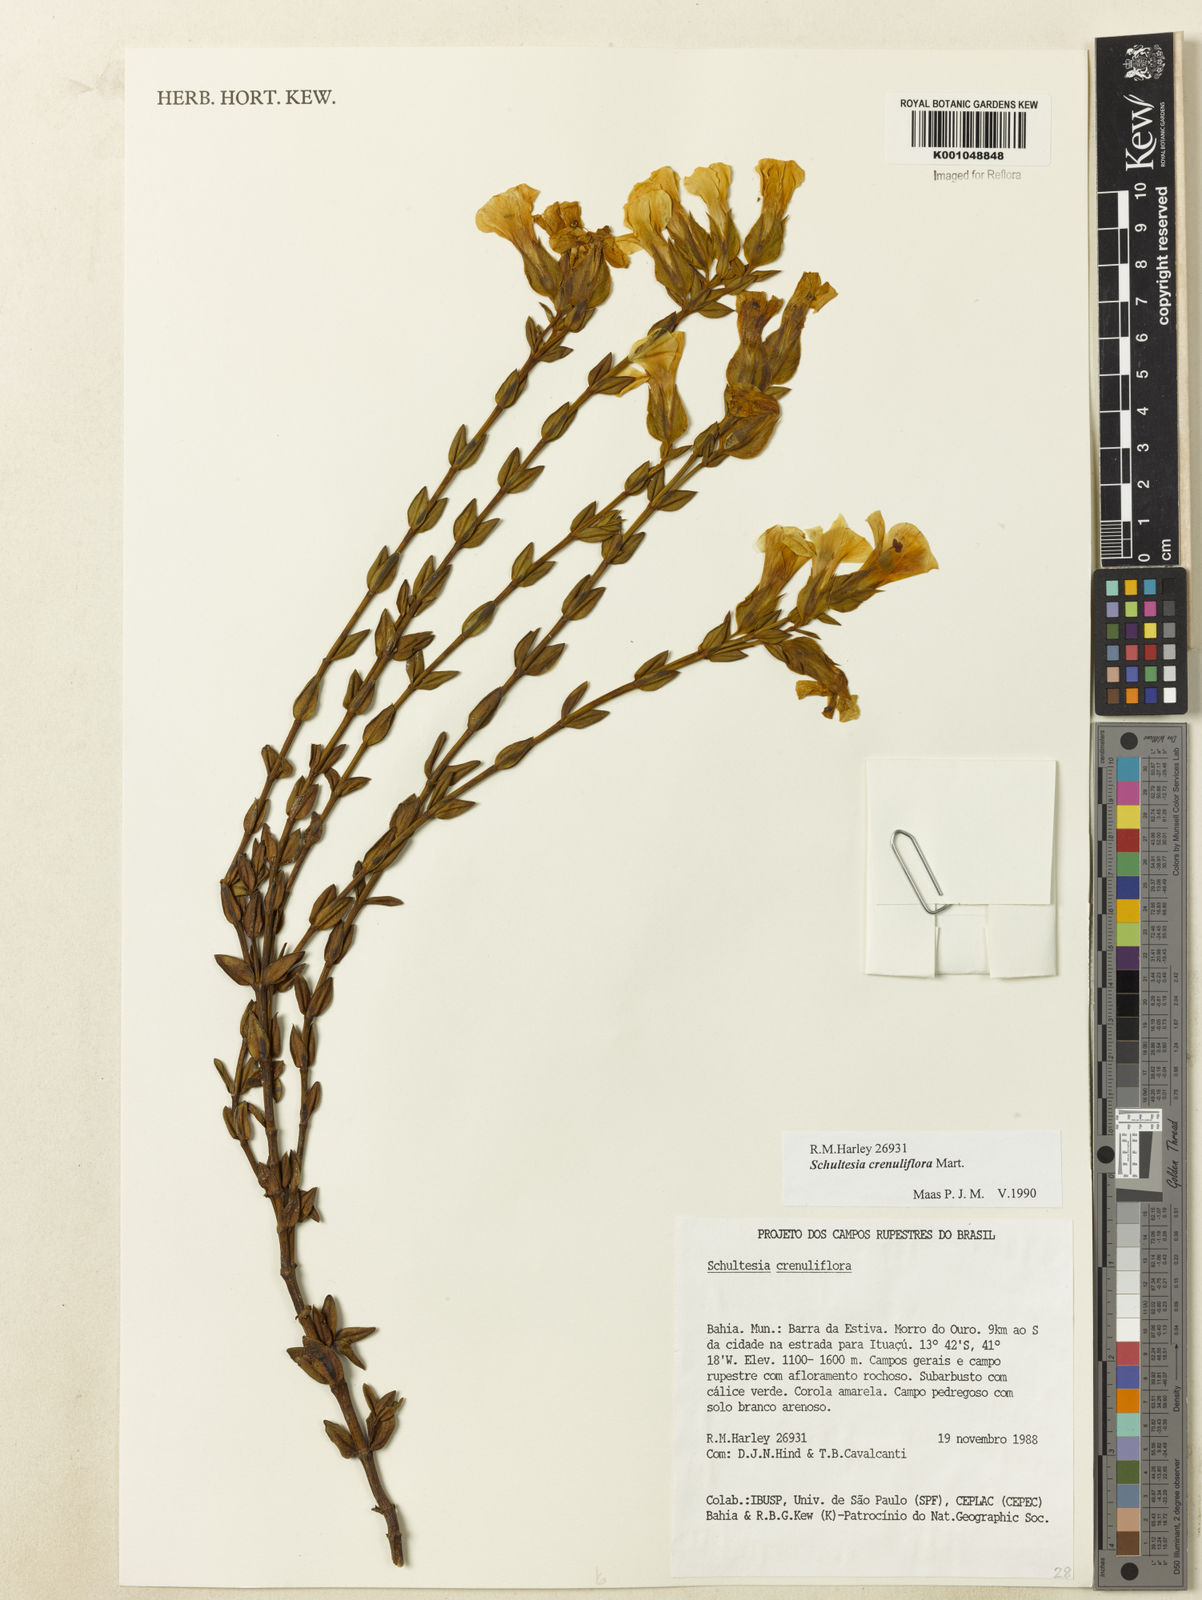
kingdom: Plantae
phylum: Tracheophyta
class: Magnoliopsida
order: Gentianales
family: Gentianaceae
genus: Schultesia
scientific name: Schultesia crenuliflora
